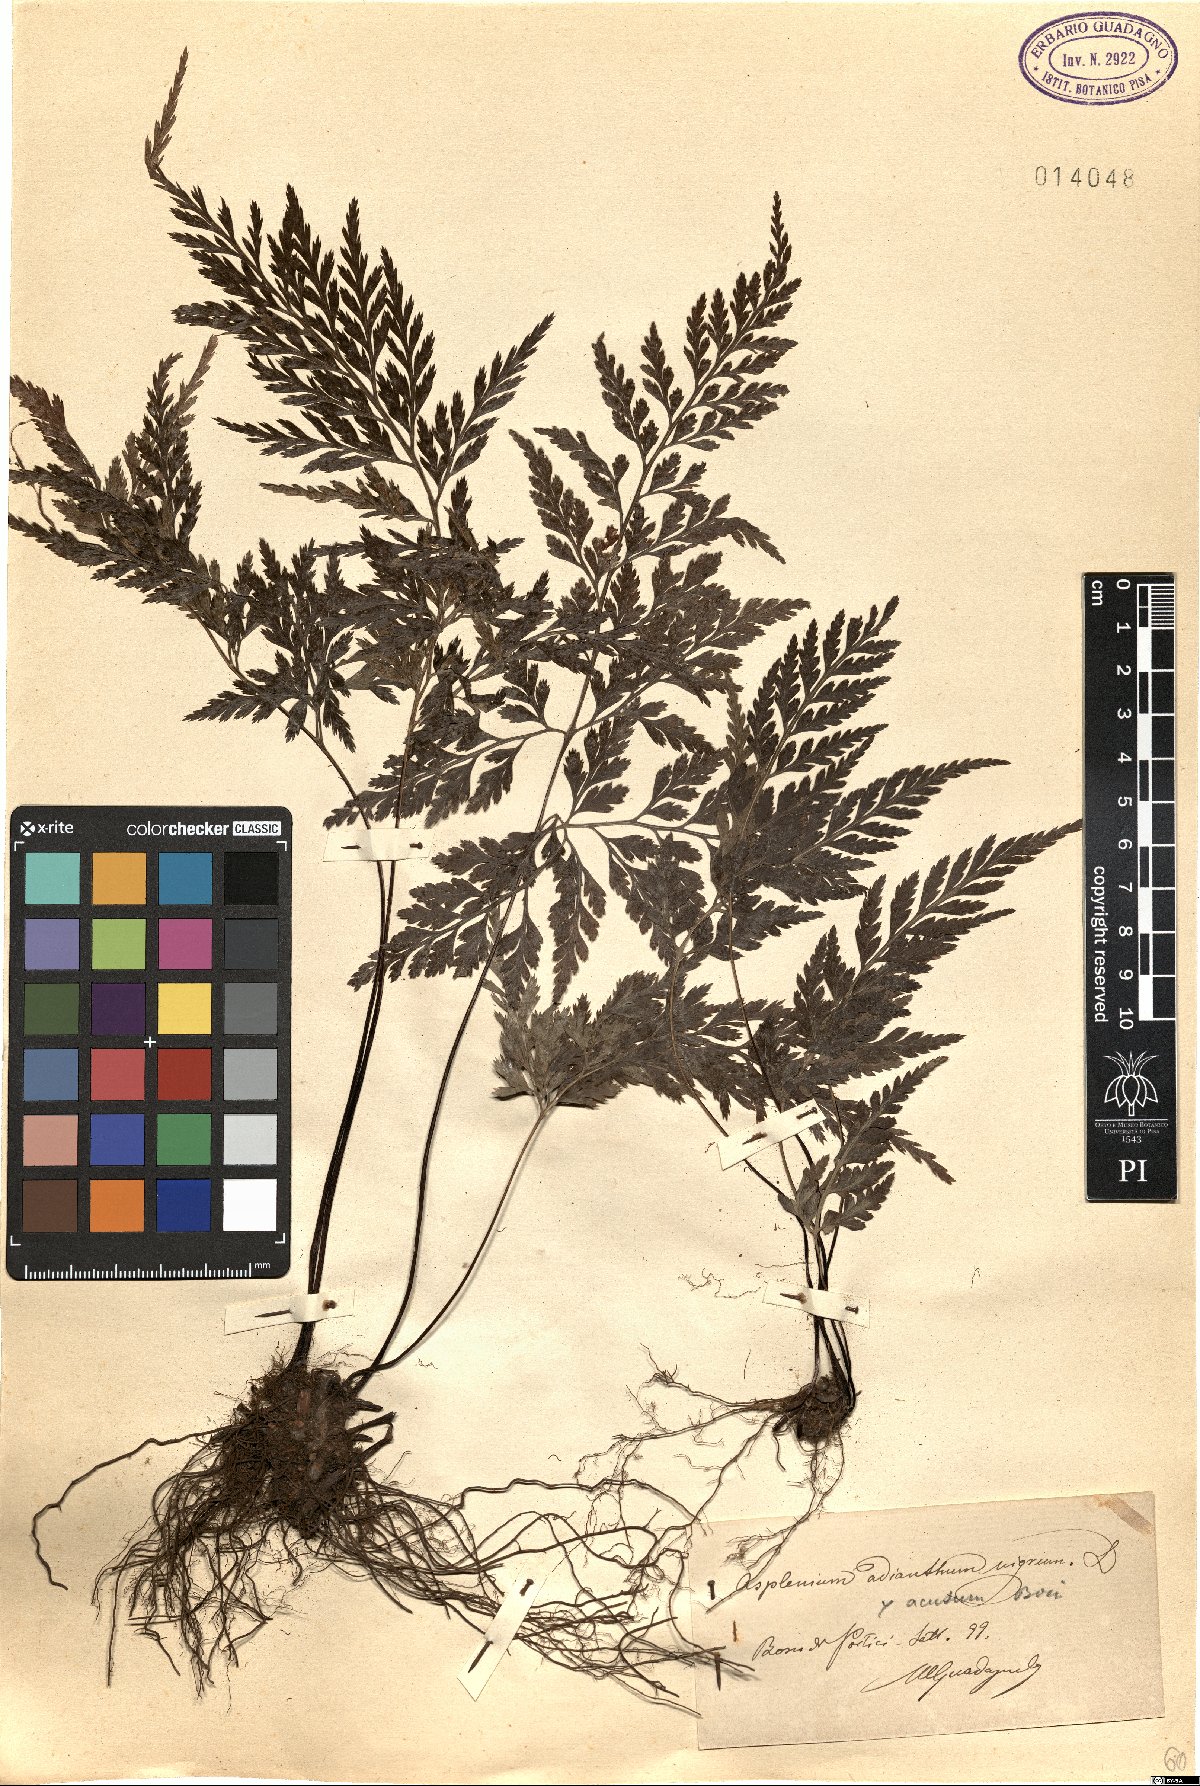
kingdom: Plantae
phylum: Tracheophyta
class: Polypodiopsida
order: Polypodiales
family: Aspleniaceae
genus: Asplenium
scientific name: Asplenium onopteris
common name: Irish spleenwort
